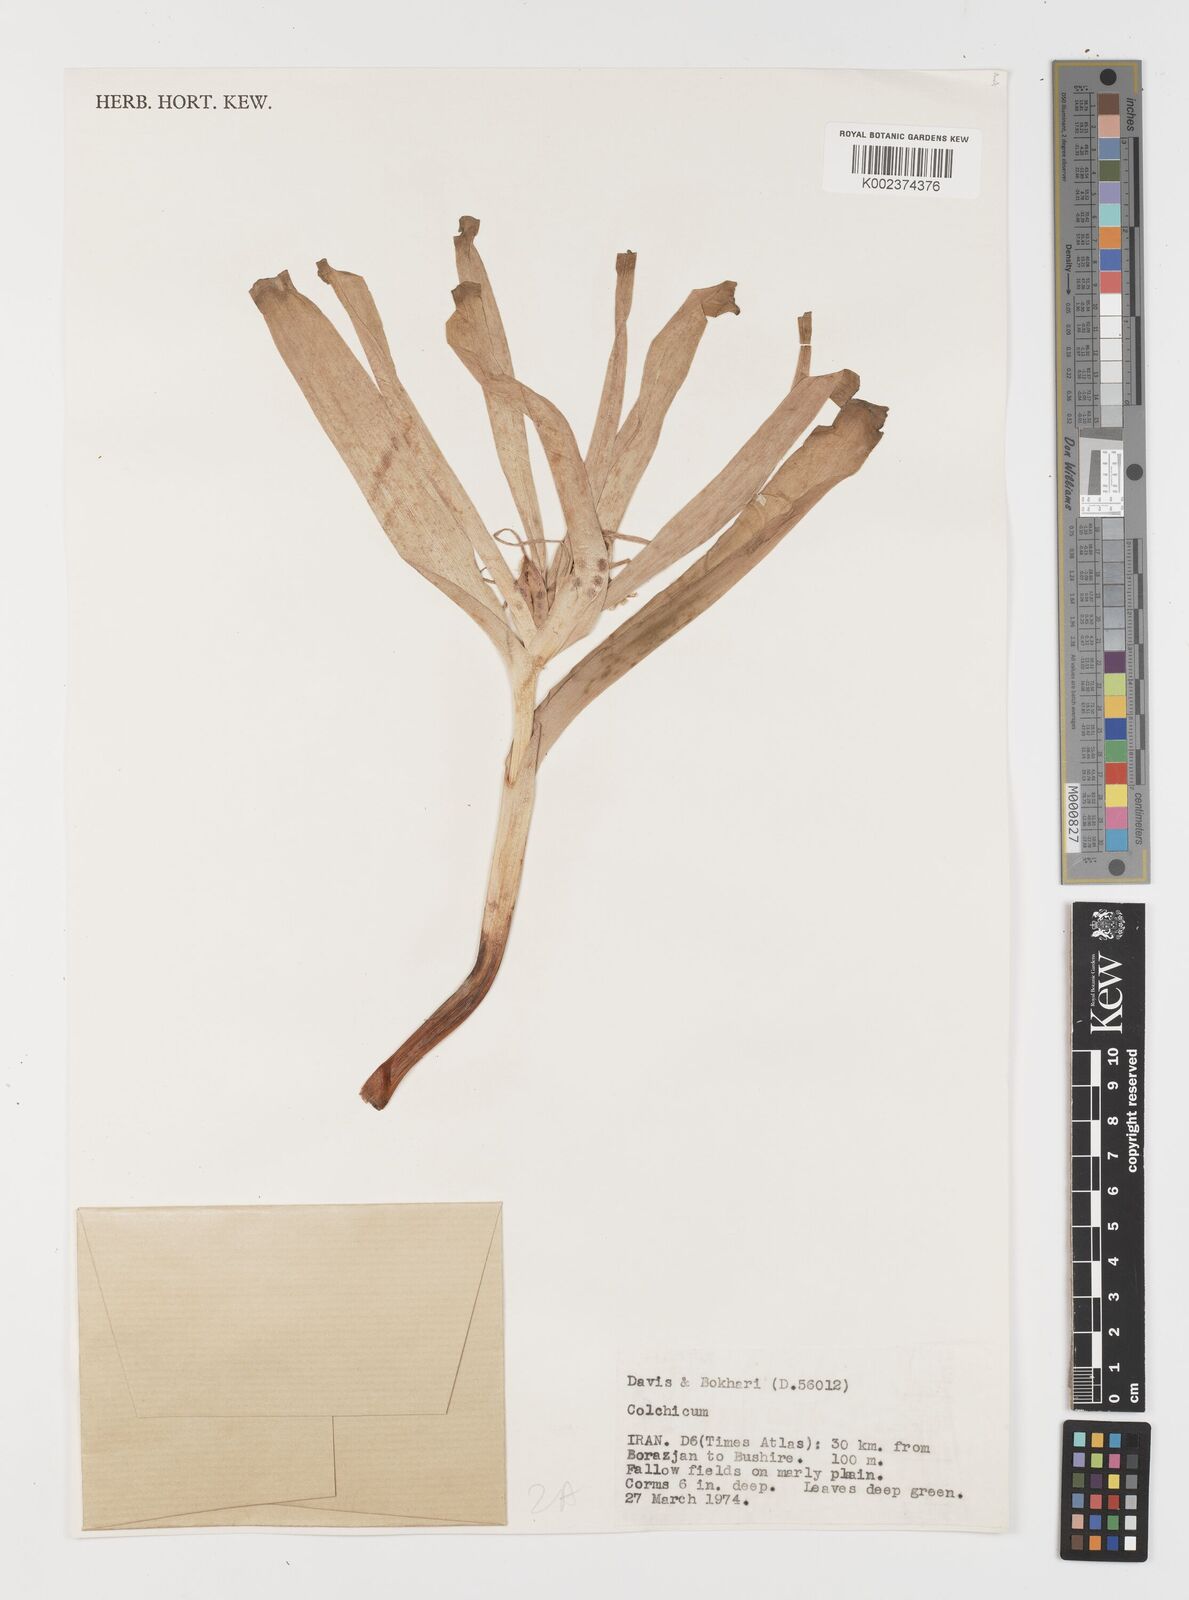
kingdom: Plantae
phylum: Tracheophyta
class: Liliopsida
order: Liliales
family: Colchicaceae
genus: Colchicum
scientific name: Colchicum
